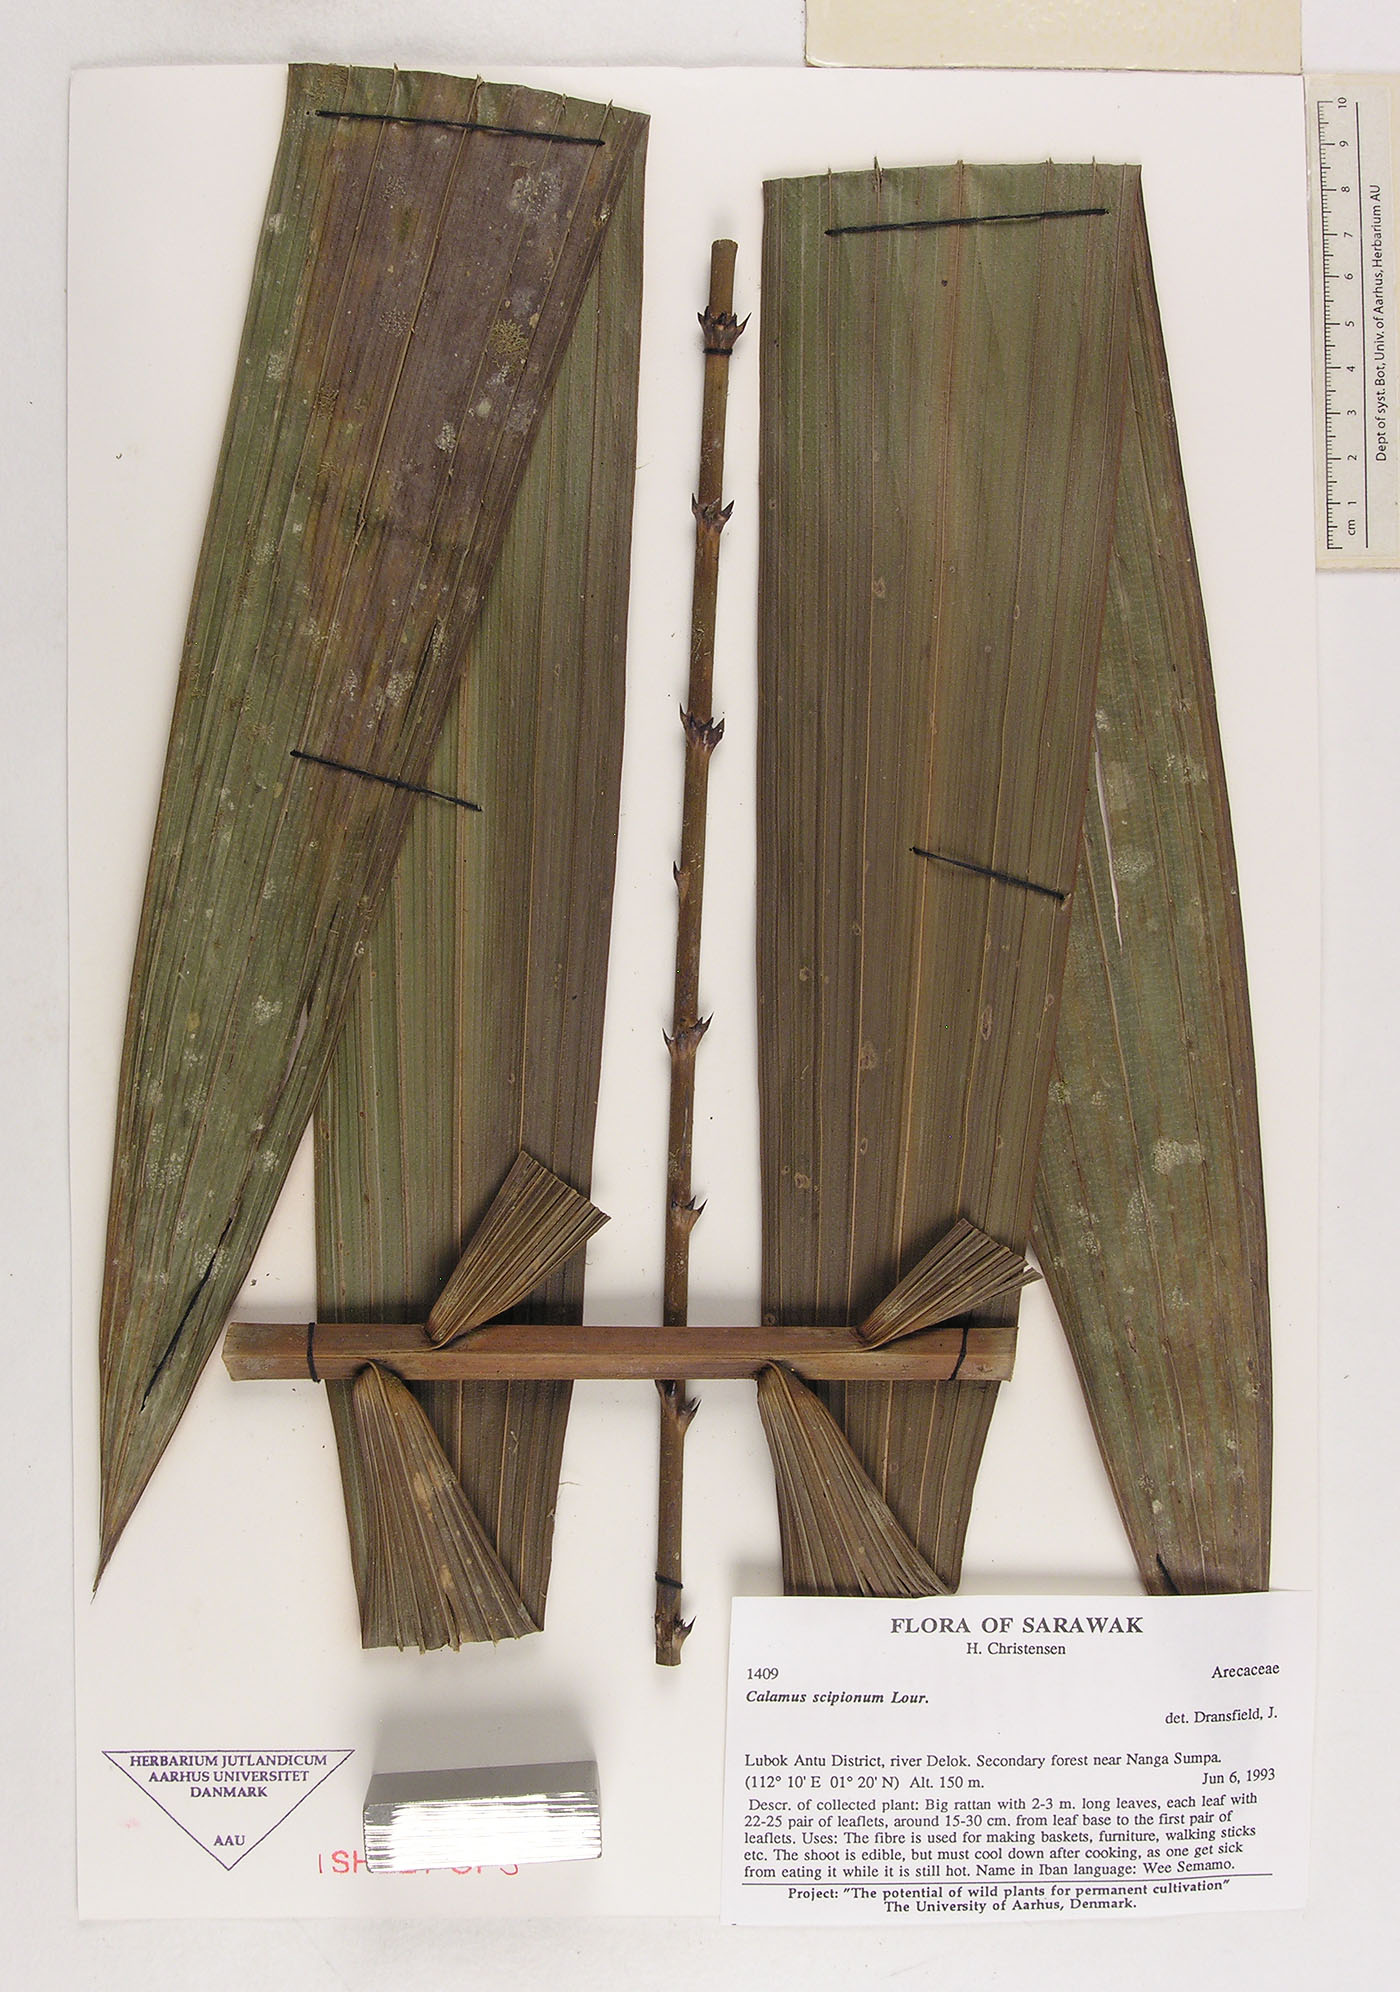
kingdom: Plantae
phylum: Tracheophyta
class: Liliopsida
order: Arecales
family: Arecaceae
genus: Calamus
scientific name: Calamus scipionum
